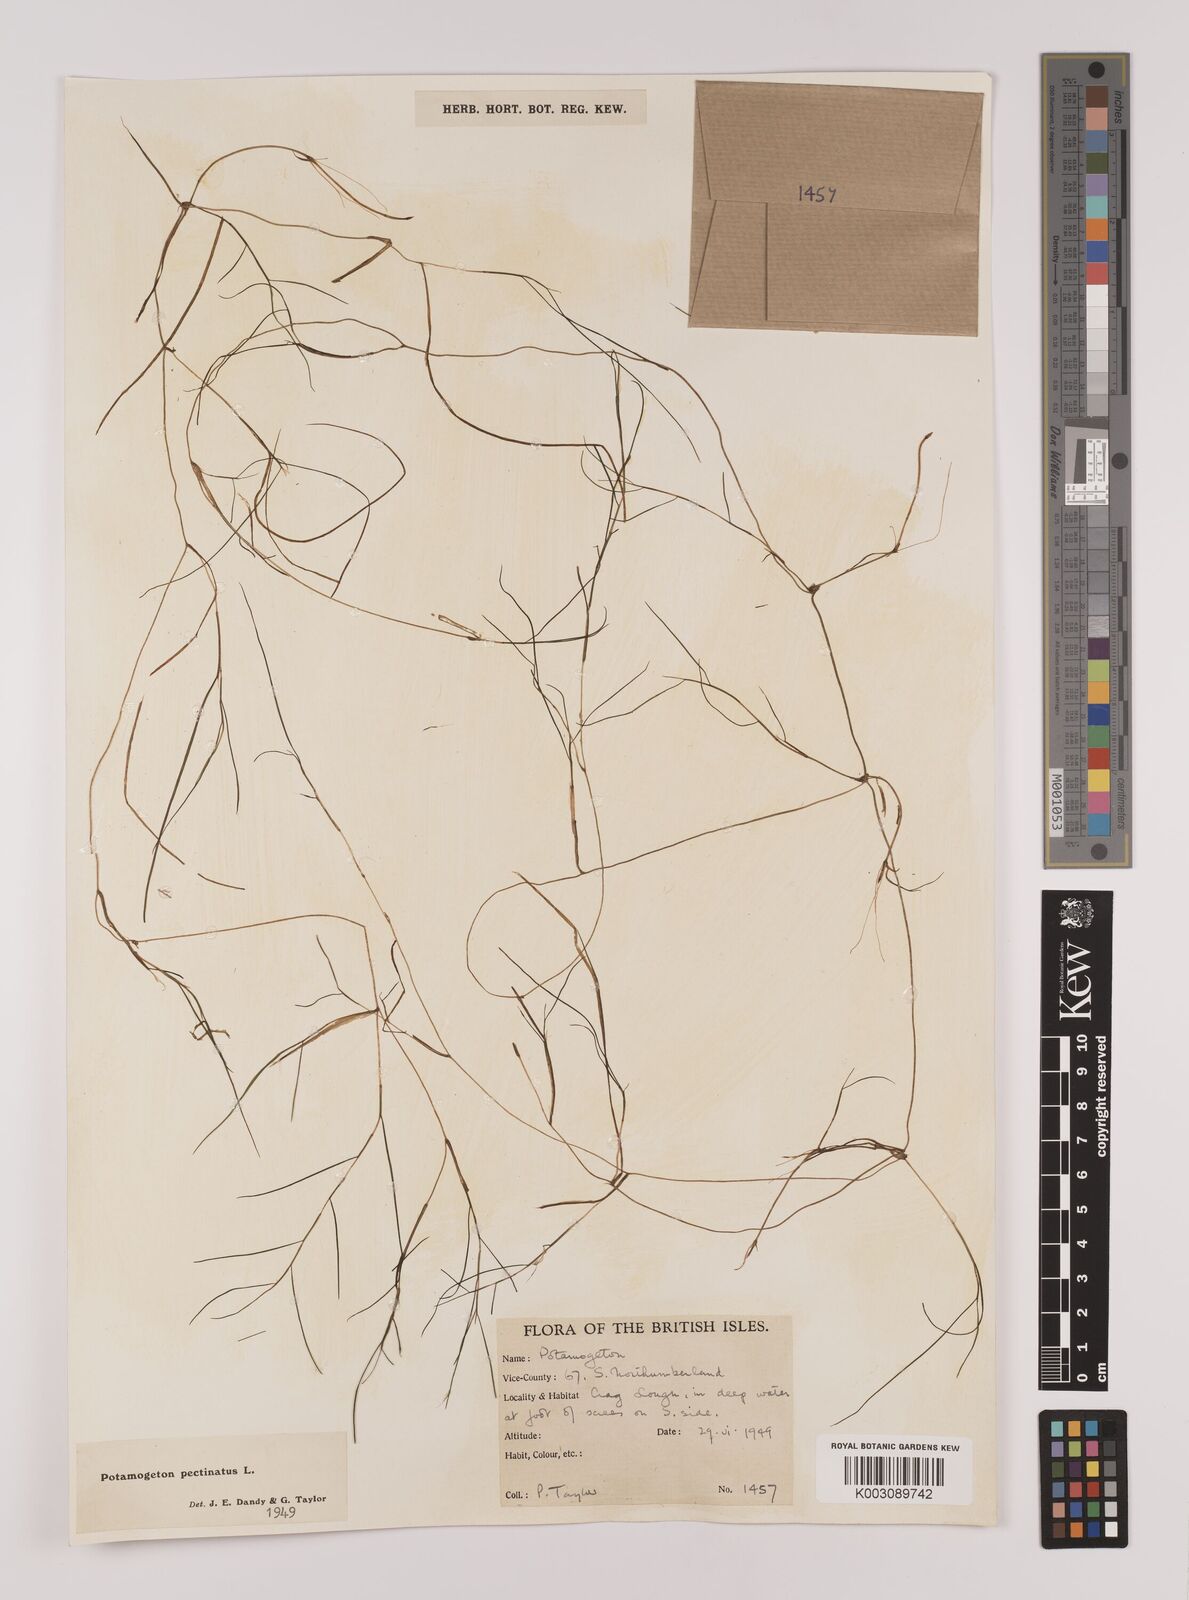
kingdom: Plantae
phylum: Tracheophyta
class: Liliopsida
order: Alismatales
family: Potamogetonaceae
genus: Stuckenia
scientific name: Stuckenia pectinata
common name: Sago pondweed
